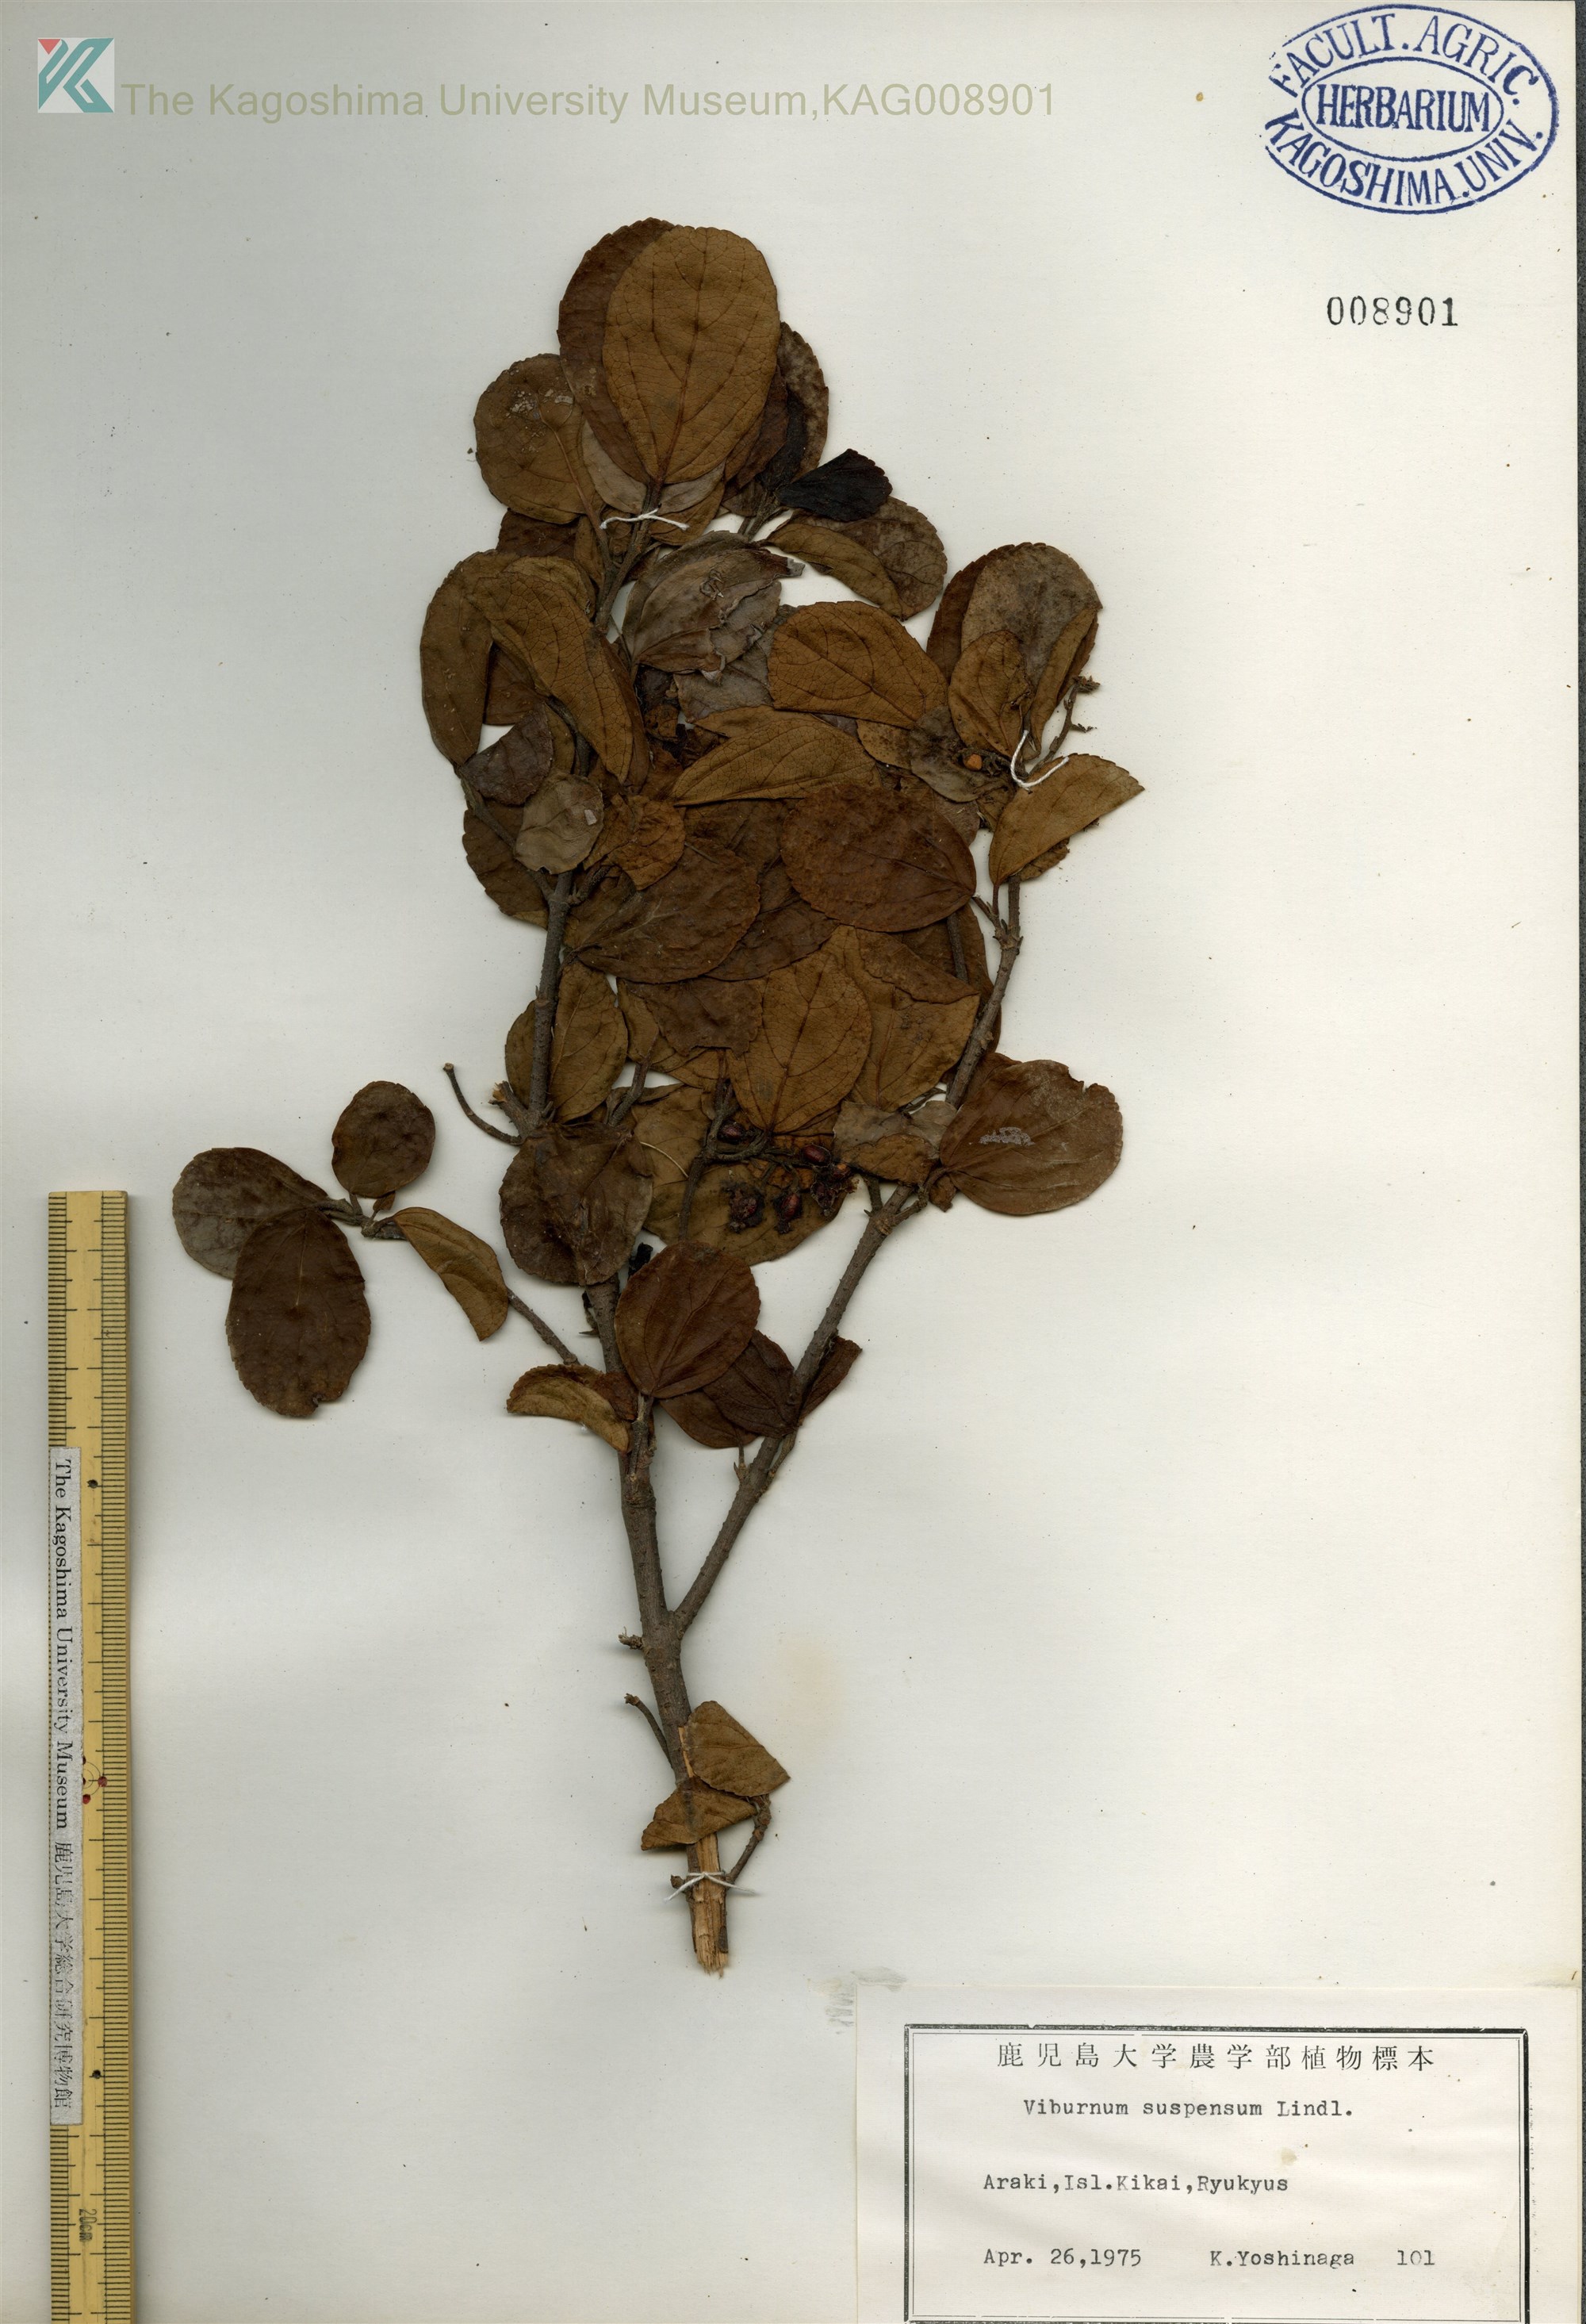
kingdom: Plantae
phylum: Tracheophyta
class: Magnoliopsida
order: Dipsacales
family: Viburnaceae
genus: Viburnum
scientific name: Viburnum suspensum
